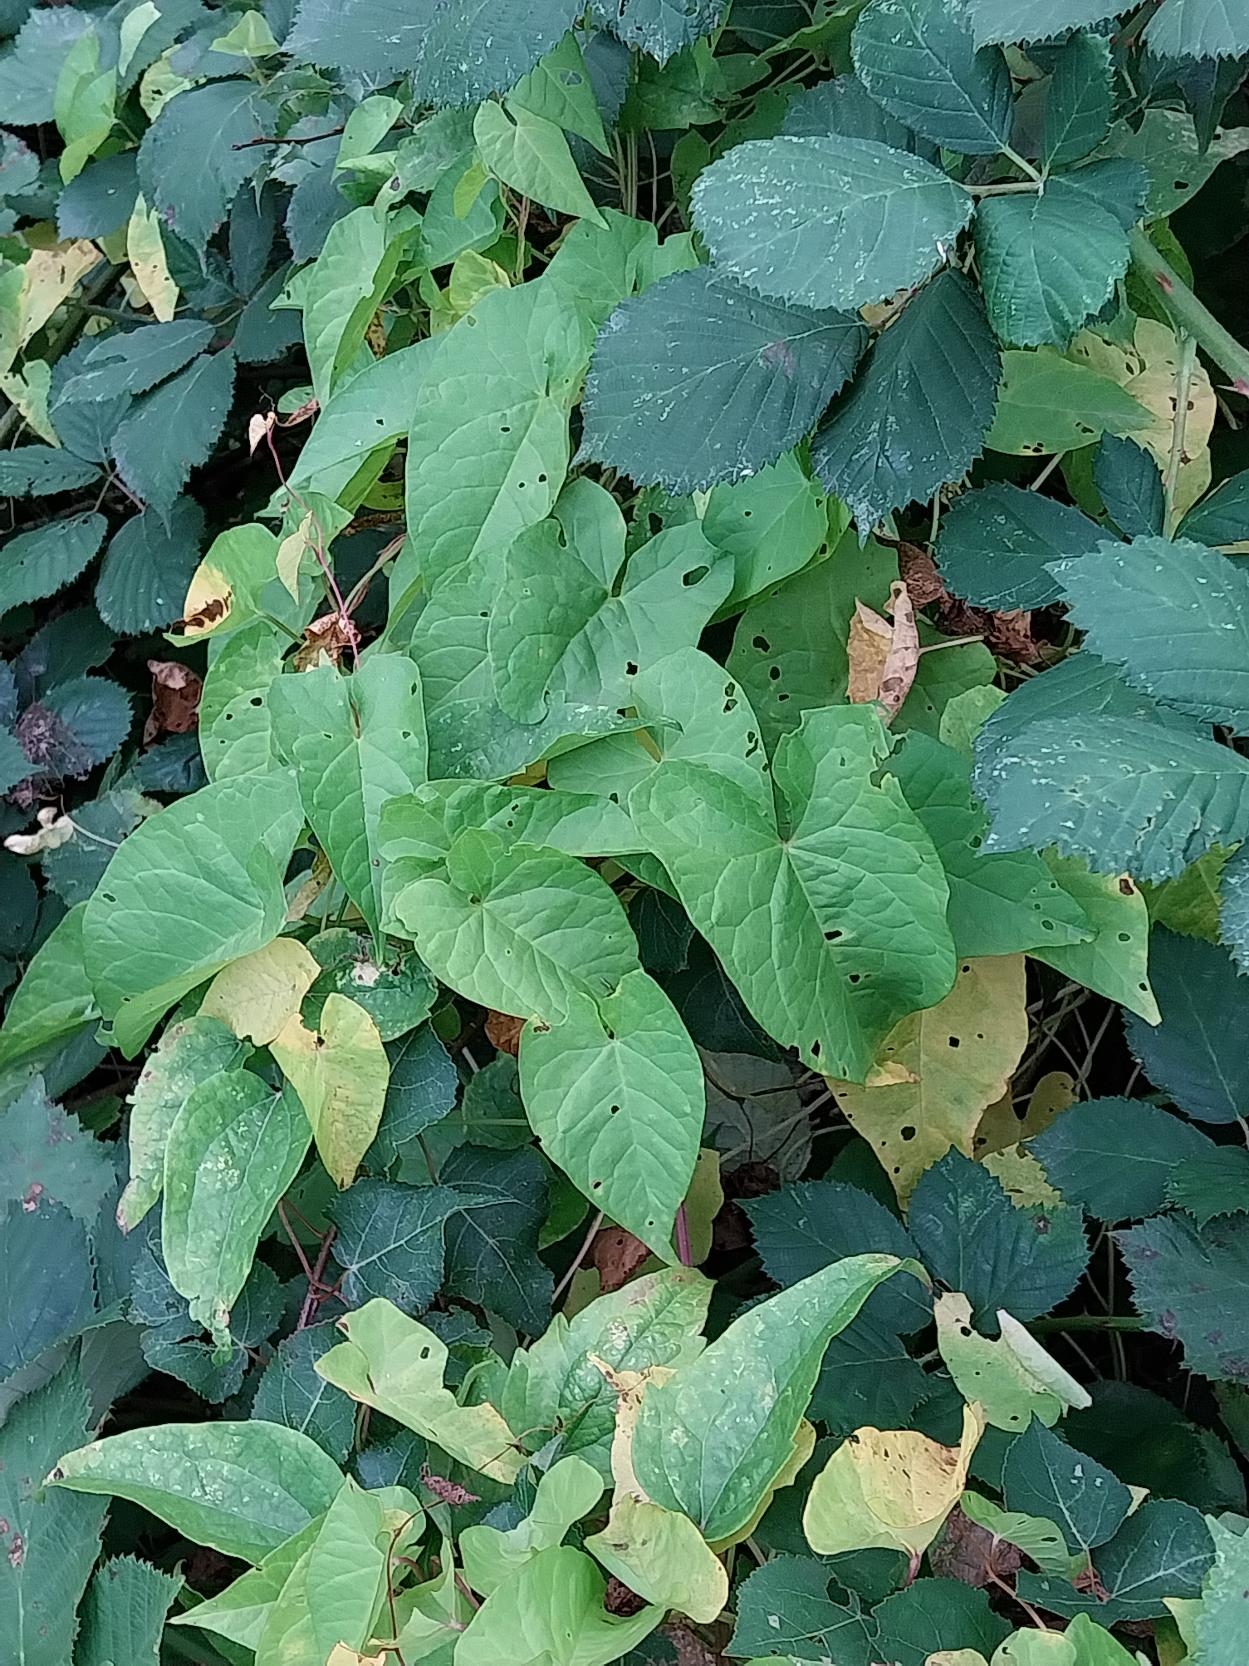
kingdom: Plantae
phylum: Tracheophyta
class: Magnoliopsida
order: Solanales
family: Convolvulaceae
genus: Calystegia
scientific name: Calystegia sepium
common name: Gærde-snerle
